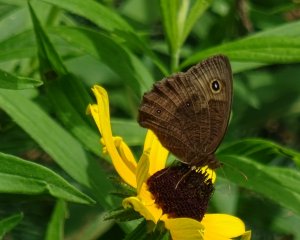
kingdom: Animalia
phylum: Arthropoda
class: Insecta
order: Lepidoptera
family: Nymphalidae
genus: Cercyonis
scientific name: Cercyonis pegala
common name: Common Wood-Nymph
